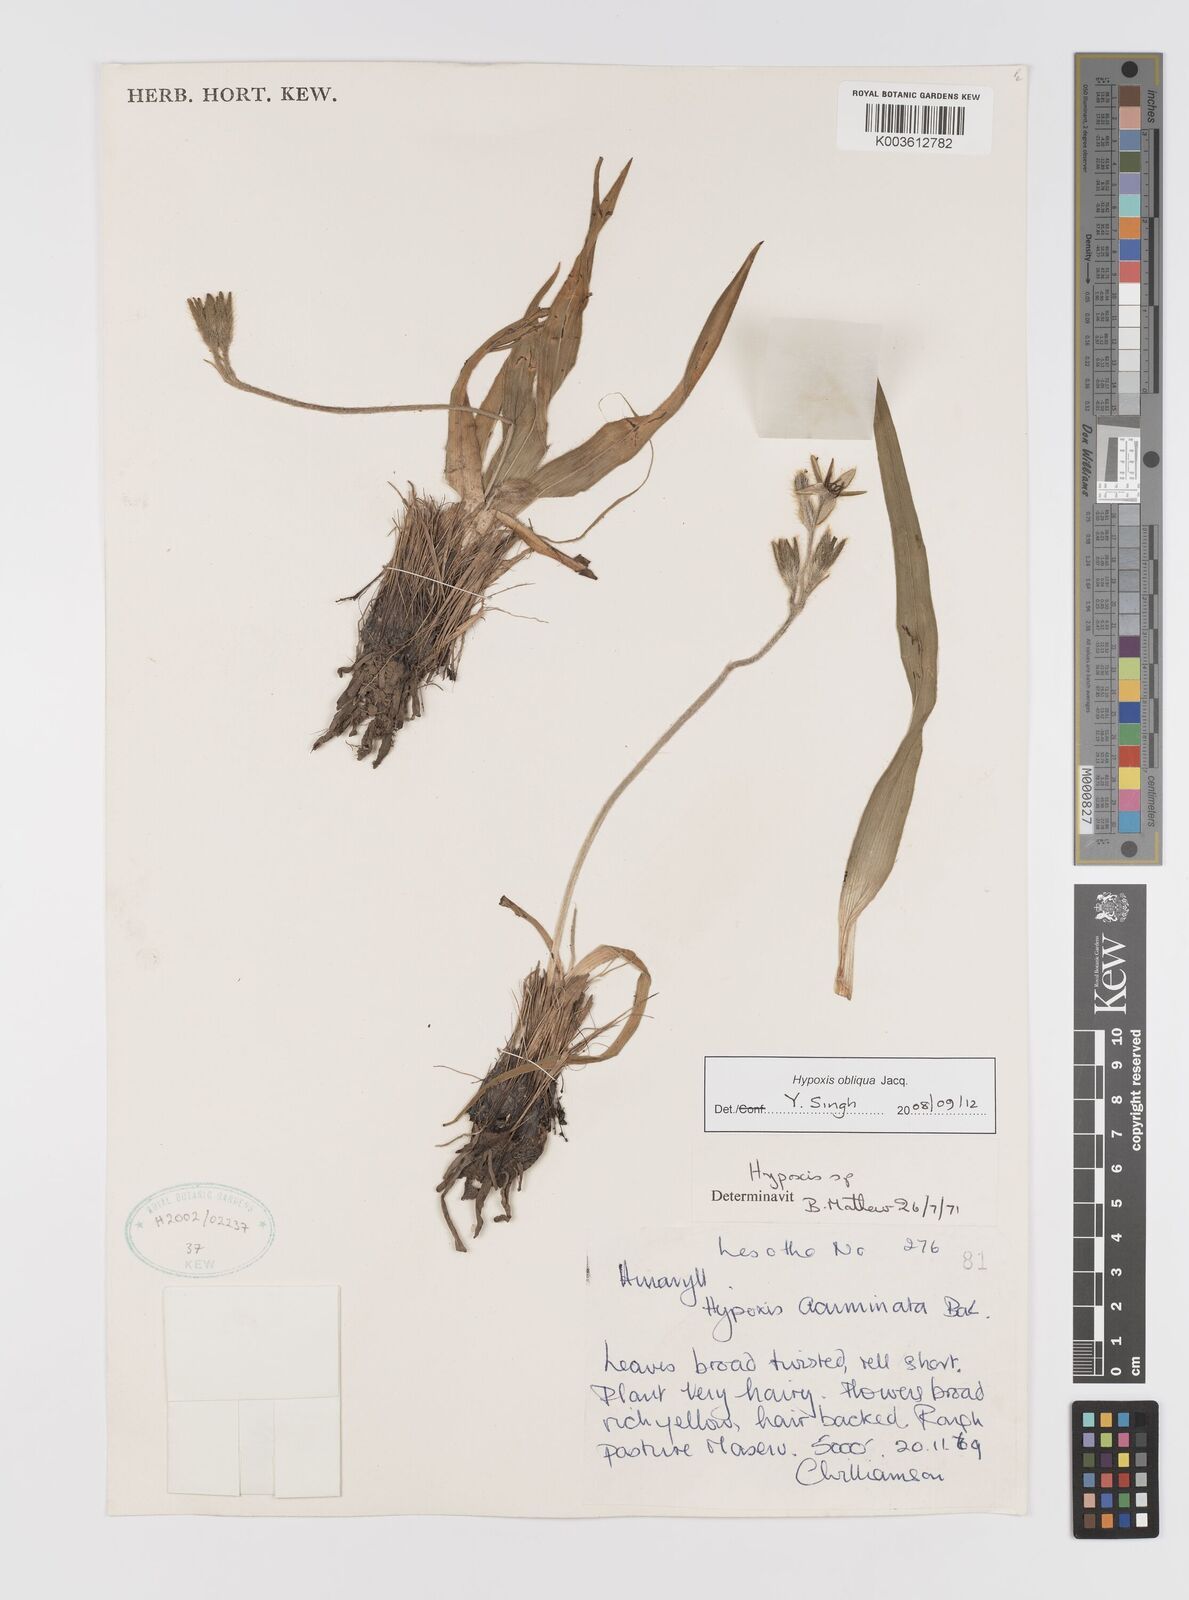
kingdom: Plantae
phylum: Tracheophyta
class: Liliopsida
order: Asparagales
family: Hypoxidaceae
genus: Hypoxis
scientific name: Hypoxis villosa
